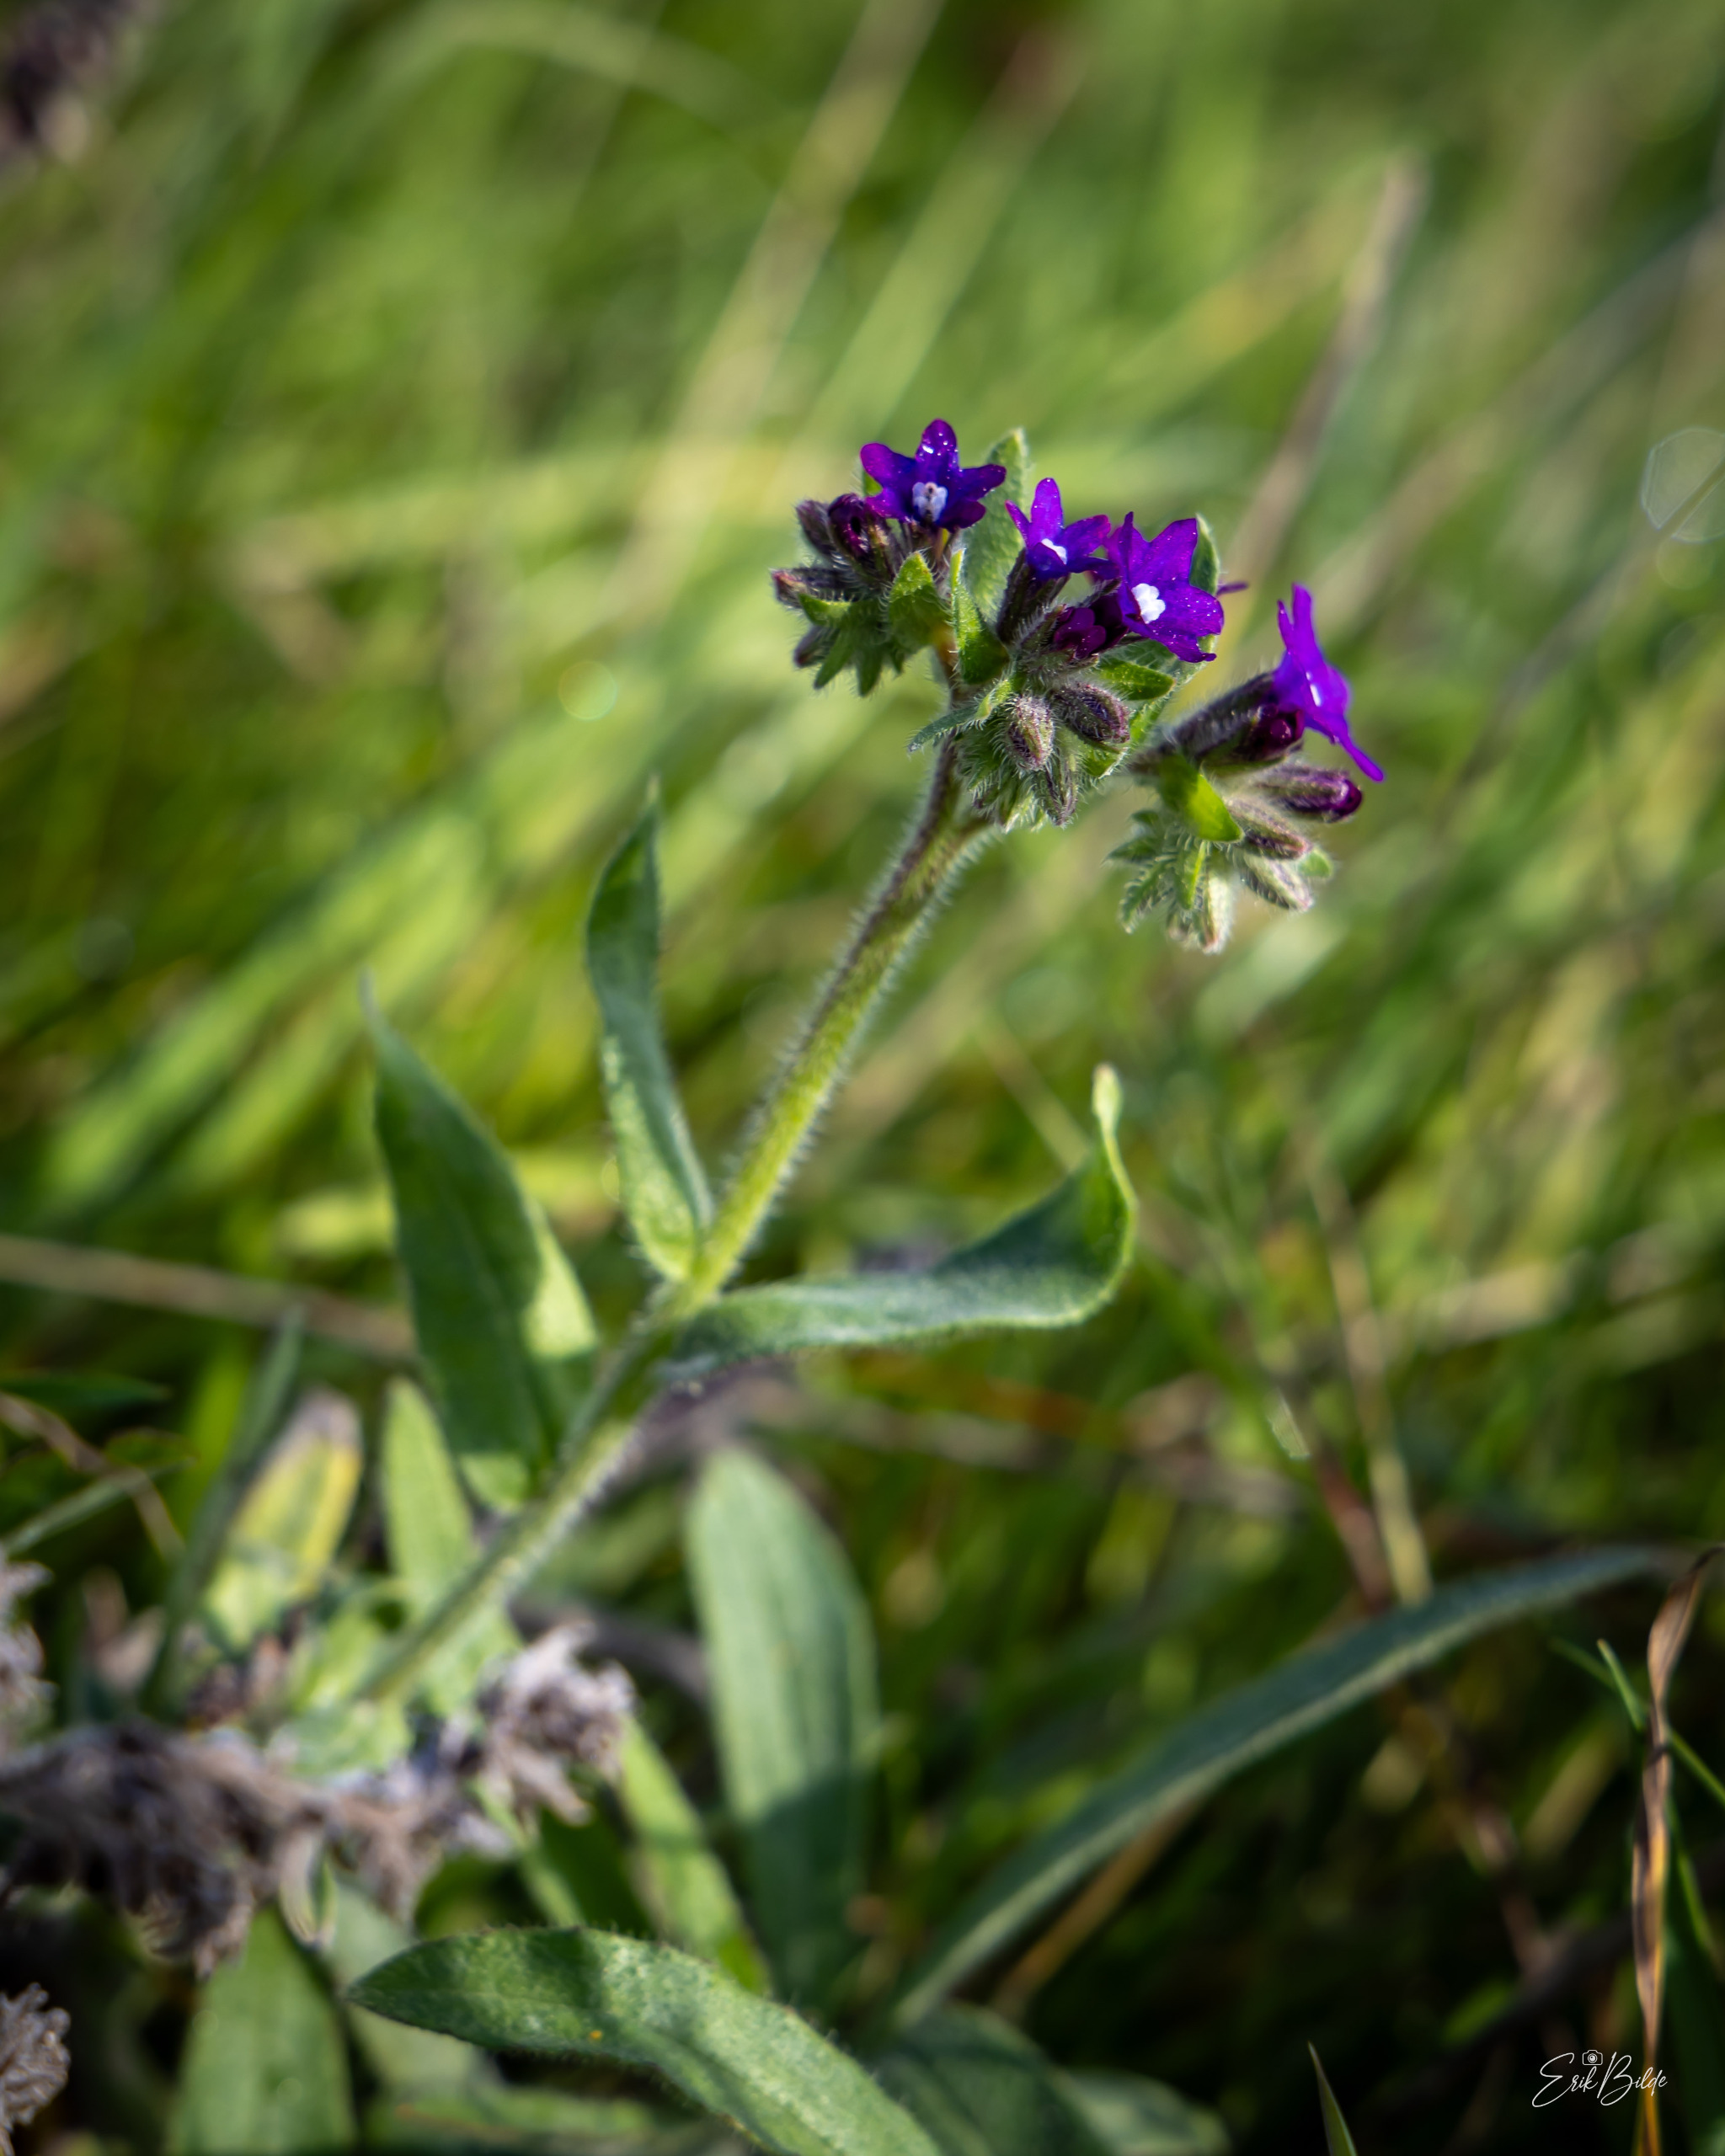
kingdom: Plantae
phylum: Tracheophyta
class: Magnoliopsida
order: Boraginales
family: Boraginaceae
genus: Anchusa
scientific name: Anchusa officinalis
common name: Læge-oksetunge
